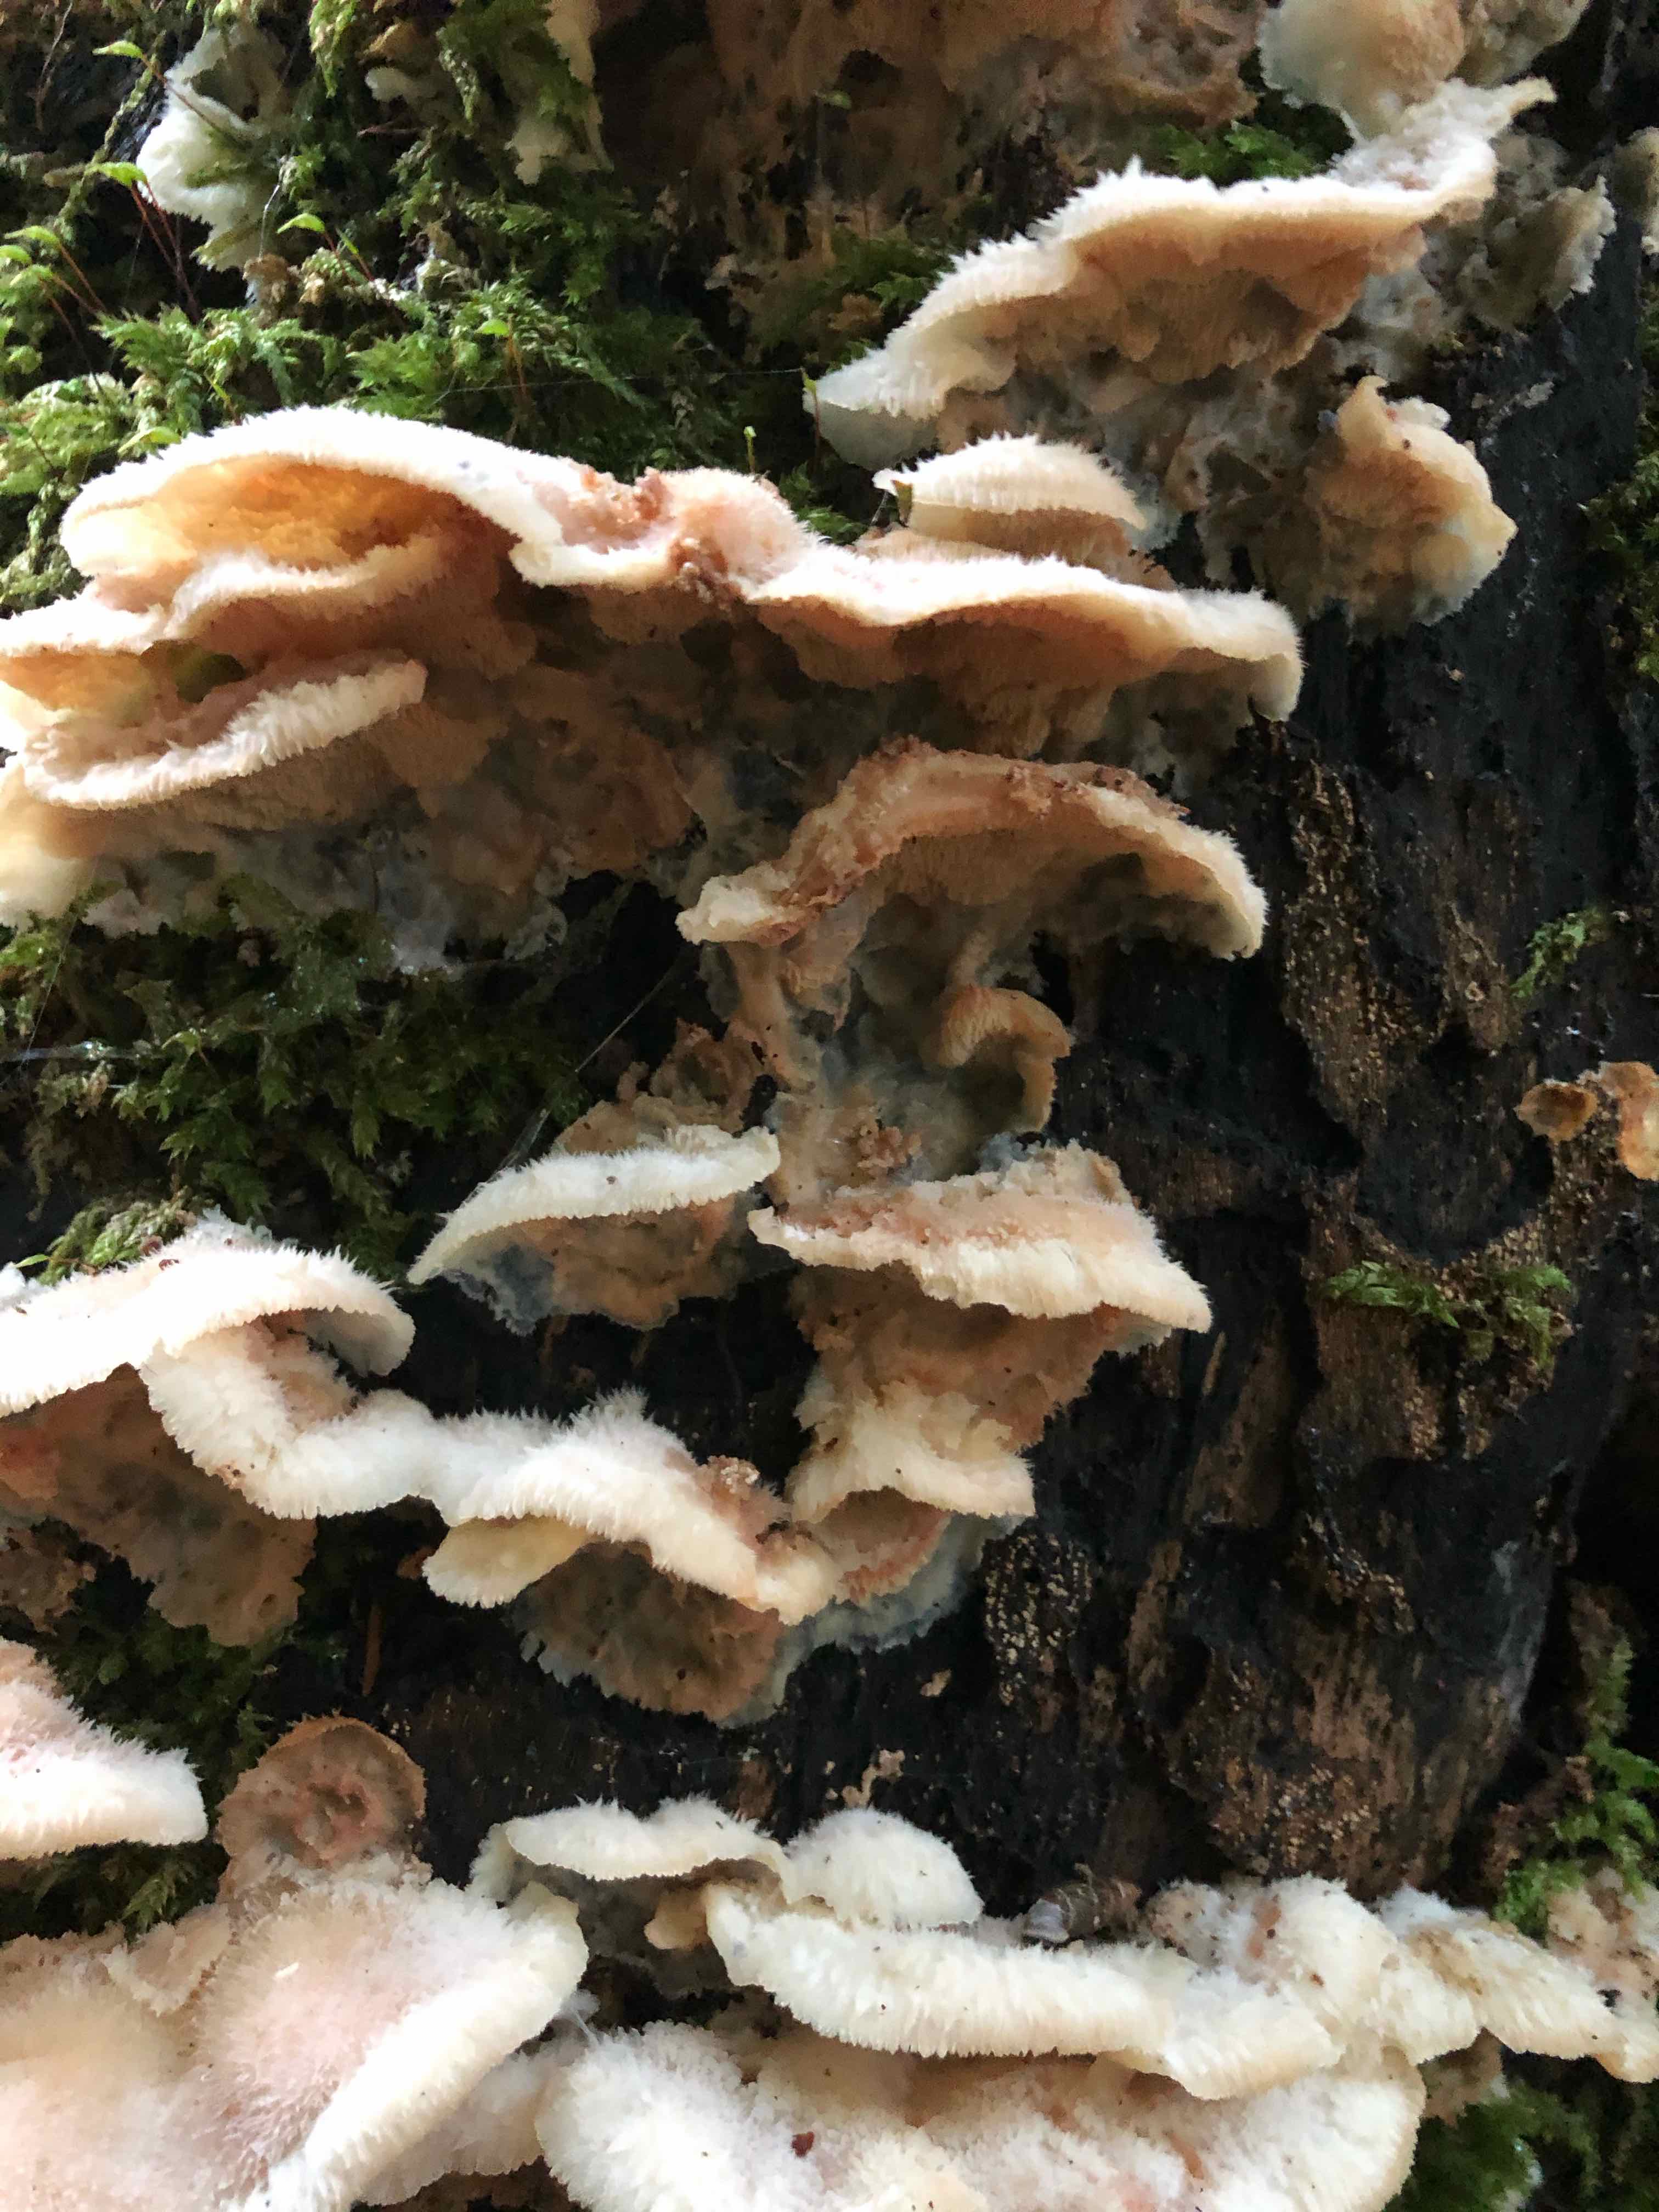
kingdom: Fungi
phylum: Basidiomycota
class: Agaricomycetes
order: Polyporales
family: Meruliaceae
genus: Phlebia
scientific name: Phlebia tremellosa
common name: bævrende åresvamp
